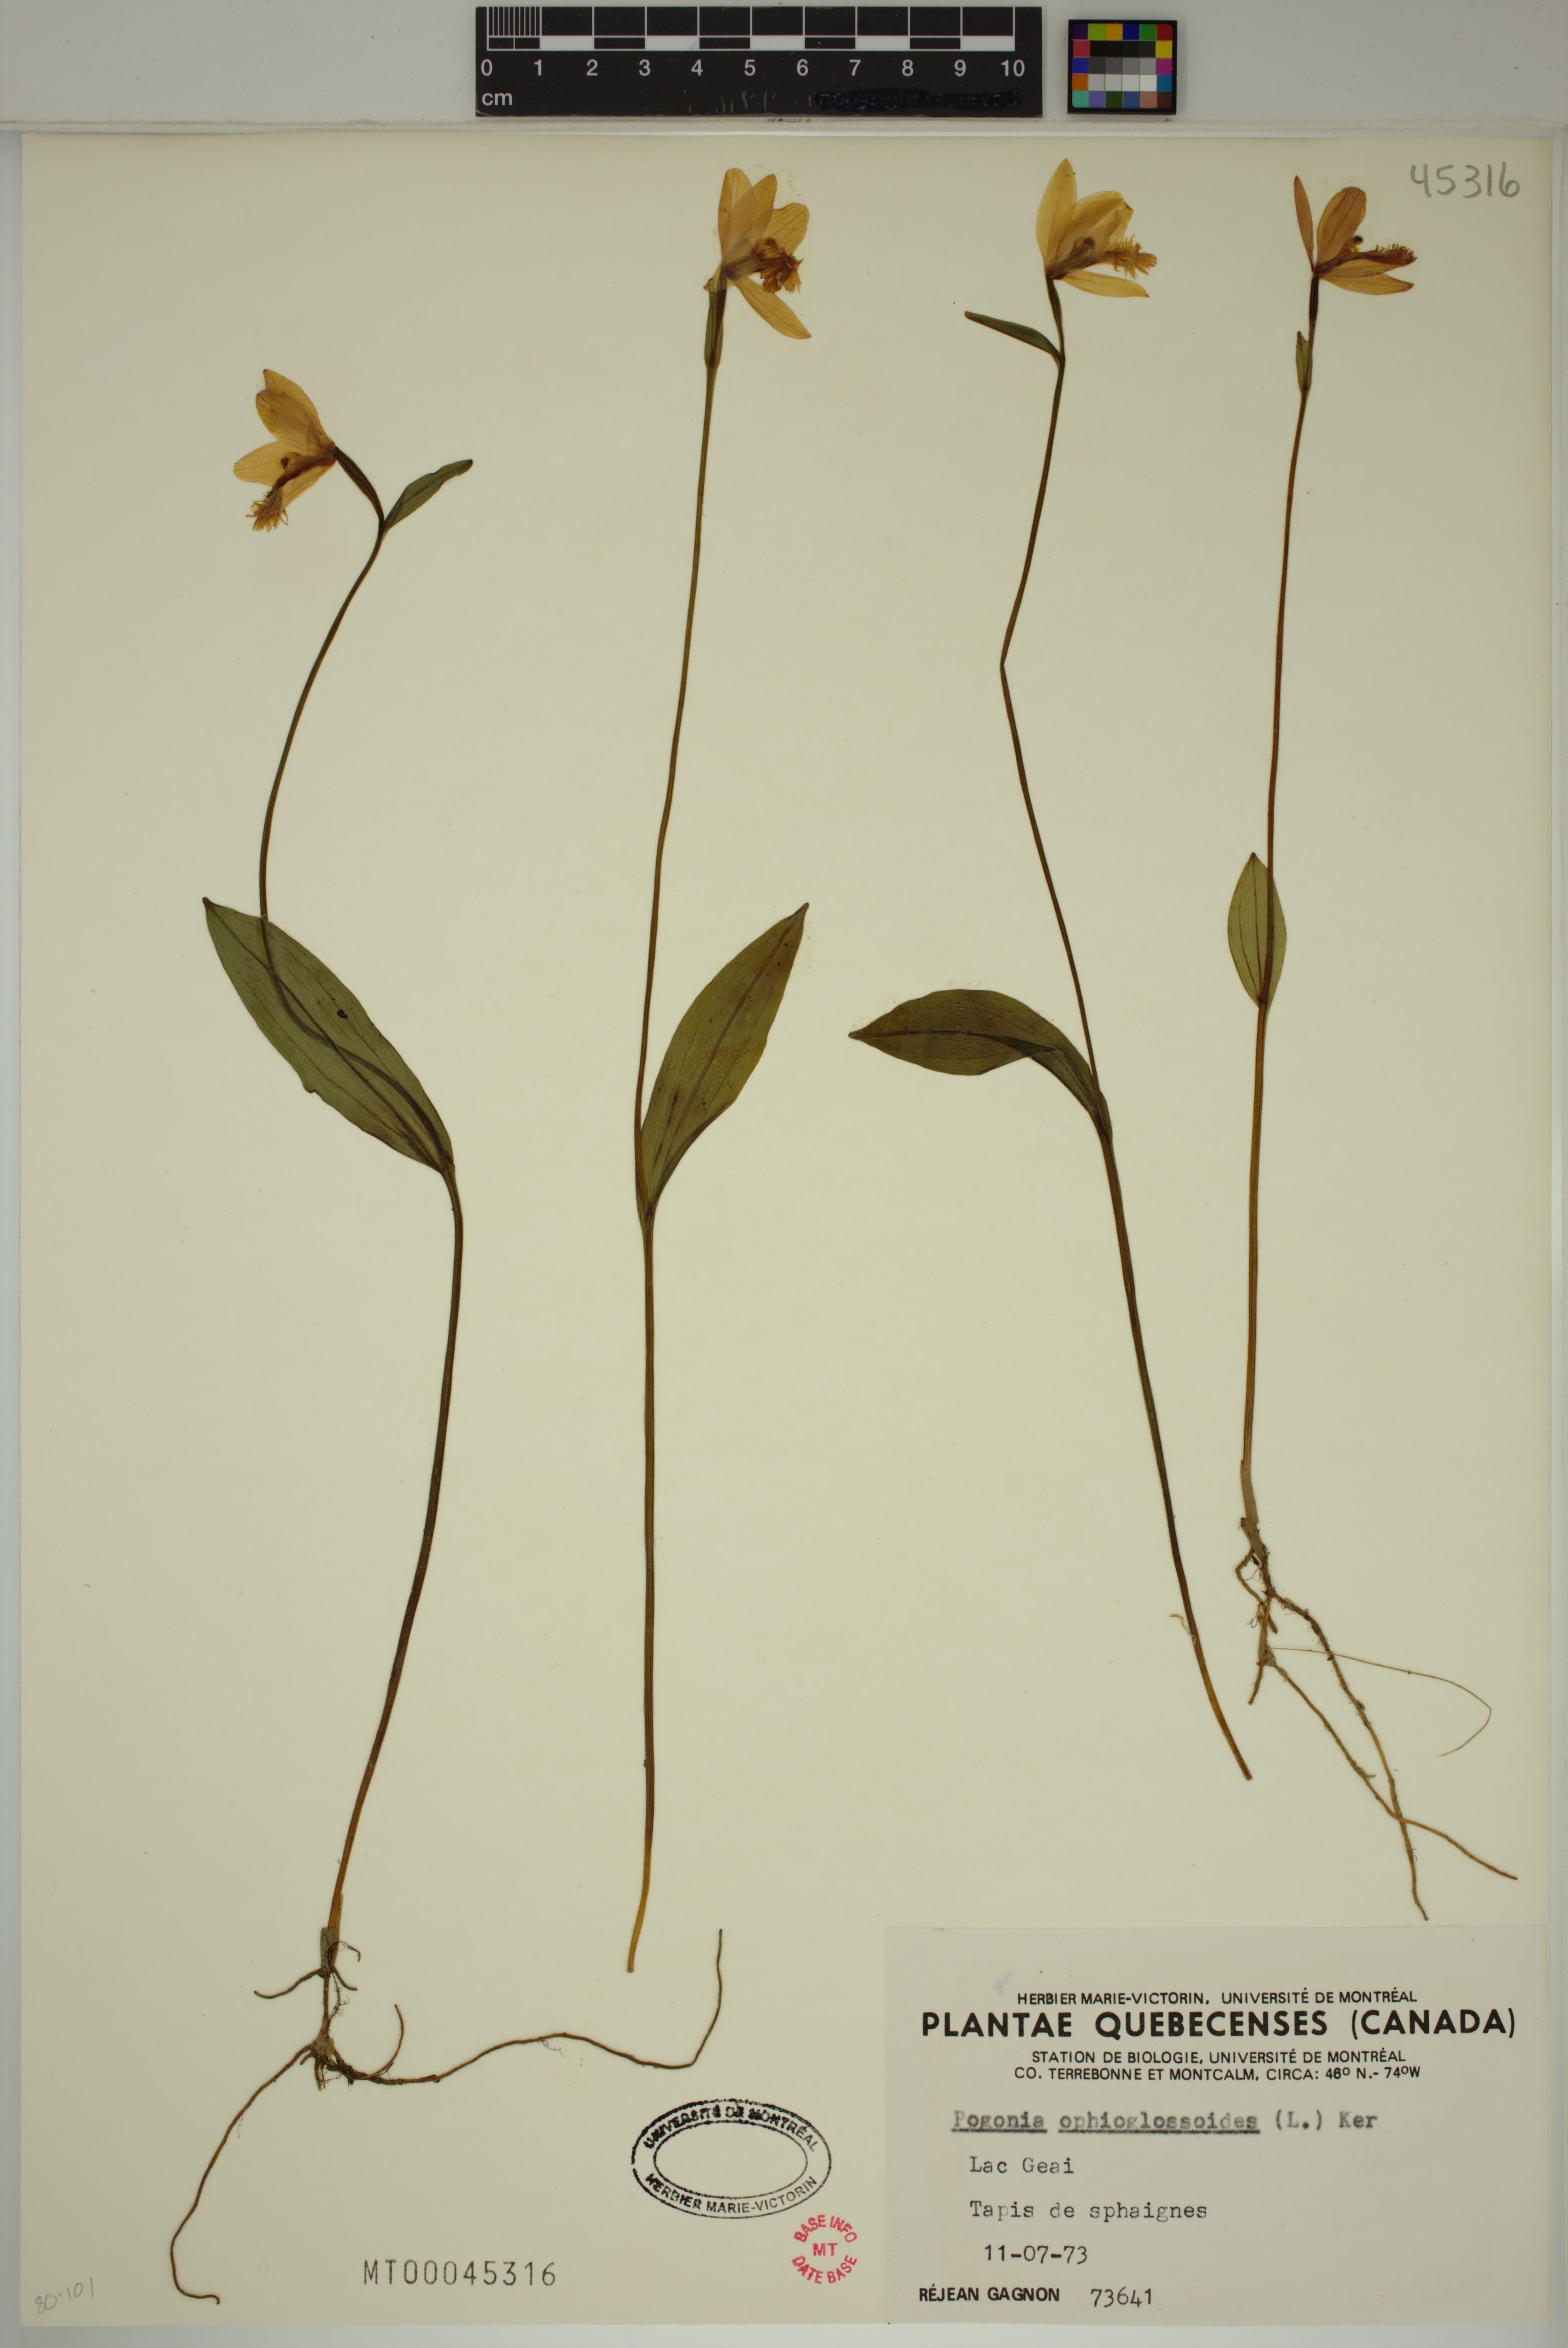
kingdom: Plantae
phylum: Tracheophyta
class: Liliopsida
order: Asparagales
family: Orchidaceae
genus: Pogonia
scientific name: Pogonia ophioglossoides
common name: Rose pogonia
